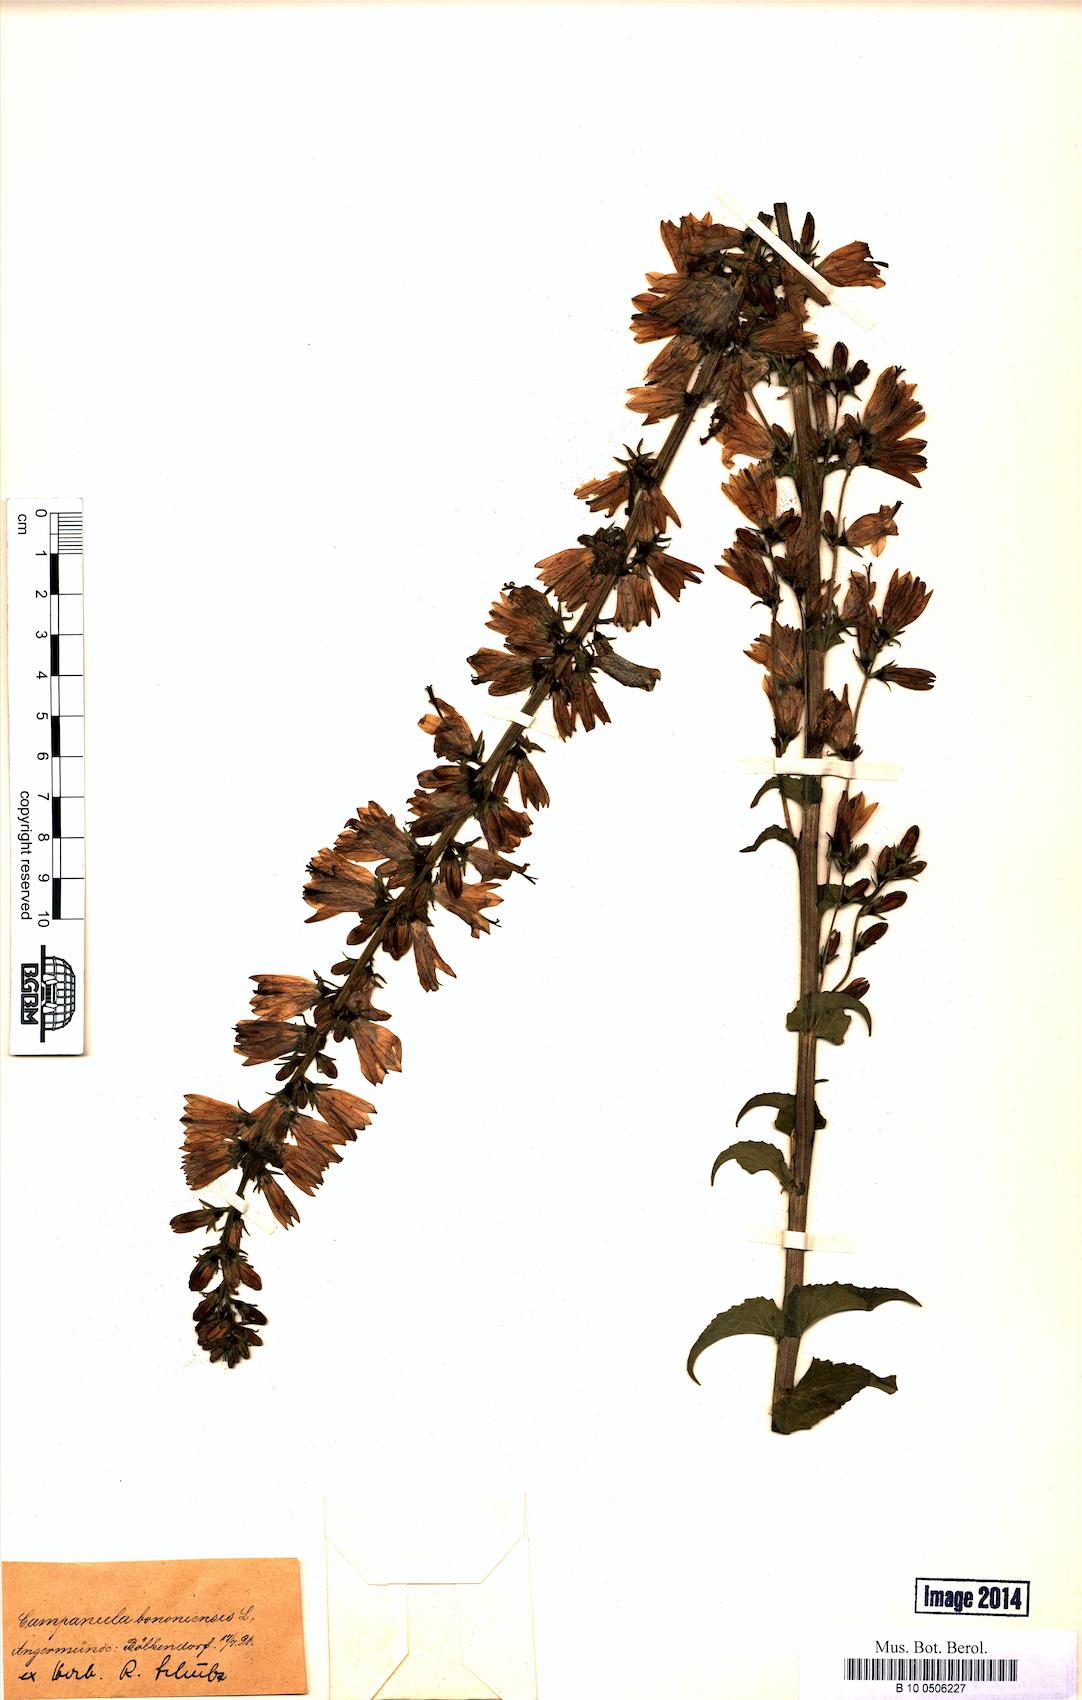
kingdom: Plantae
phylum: Tracheophyta
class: Magnoliopsida
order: Asterales
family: Campanulaceae
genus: Campanula
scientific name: Campanula bononiensis
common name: Pale bellflower
